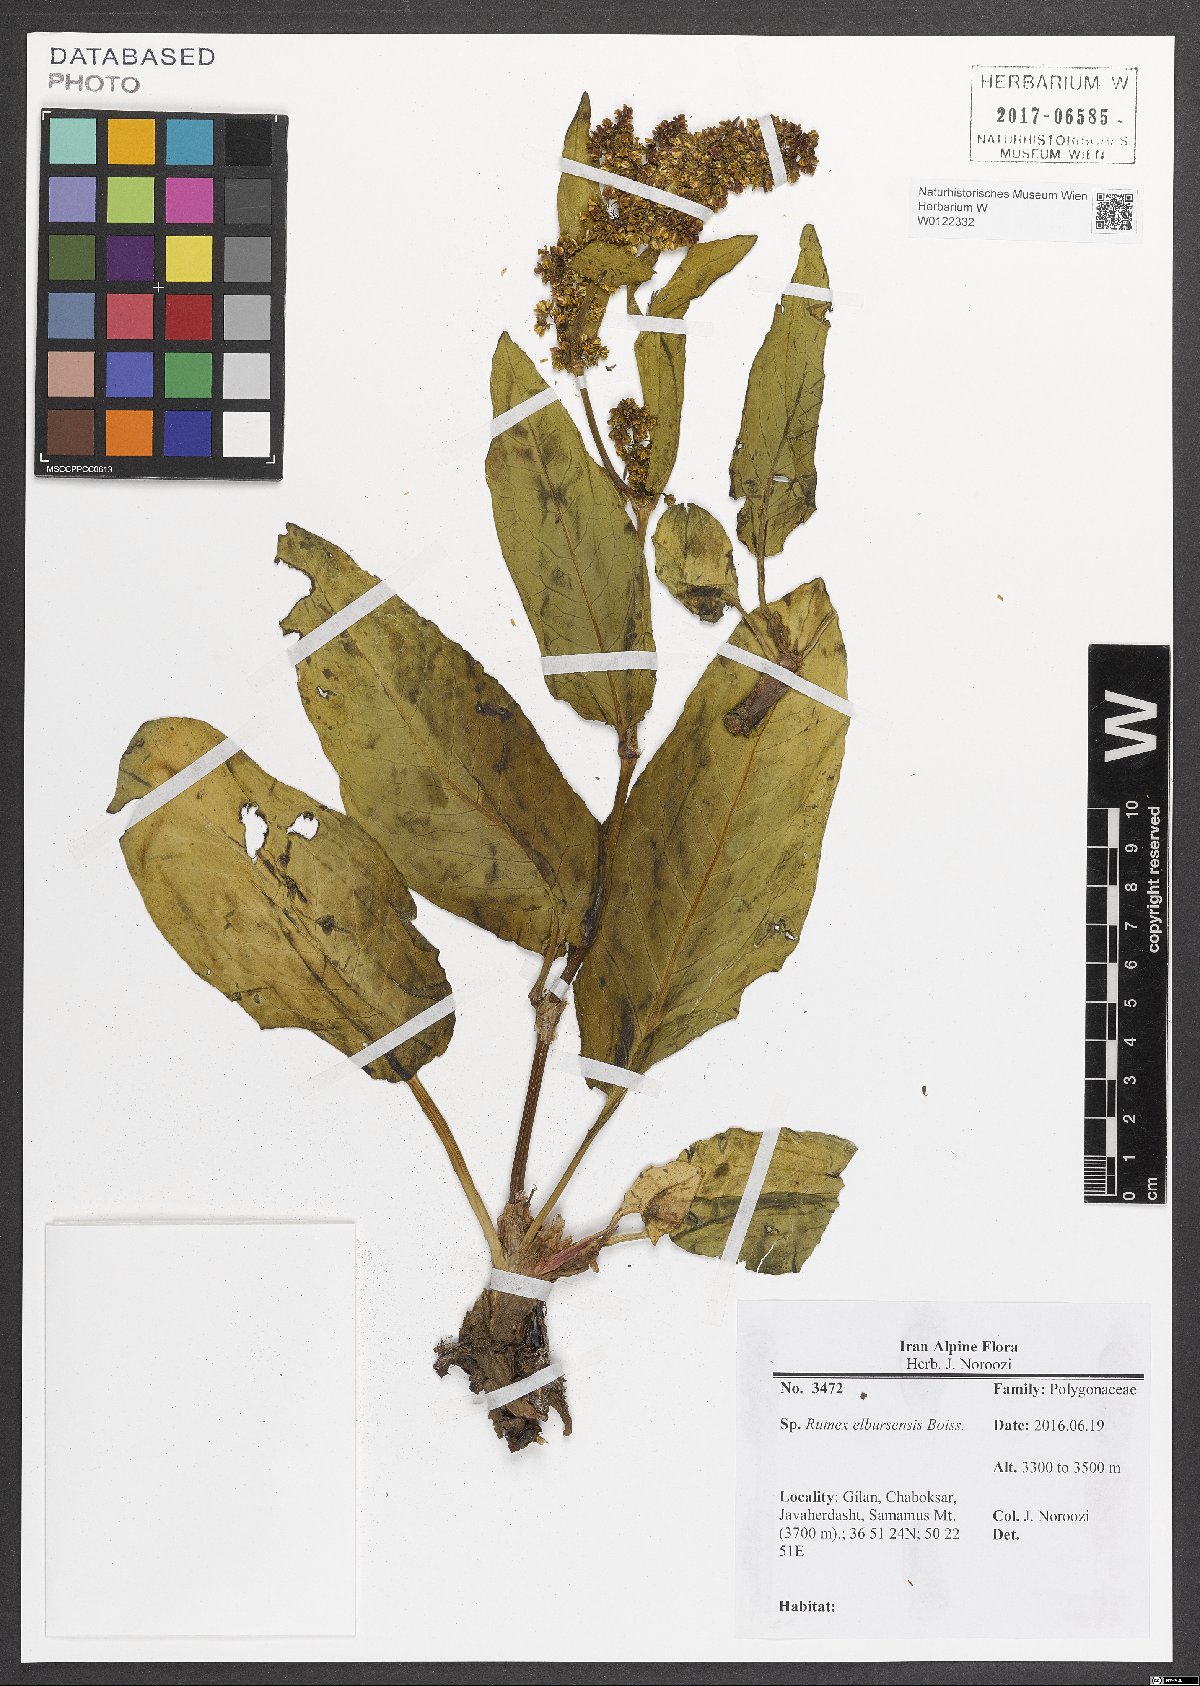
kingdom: Plantae
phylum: Tracheophyta
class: Magnoliopsida
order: Caryophyllales
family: Polygonaceae
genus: Rumex
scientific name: Rumex elbursensis
